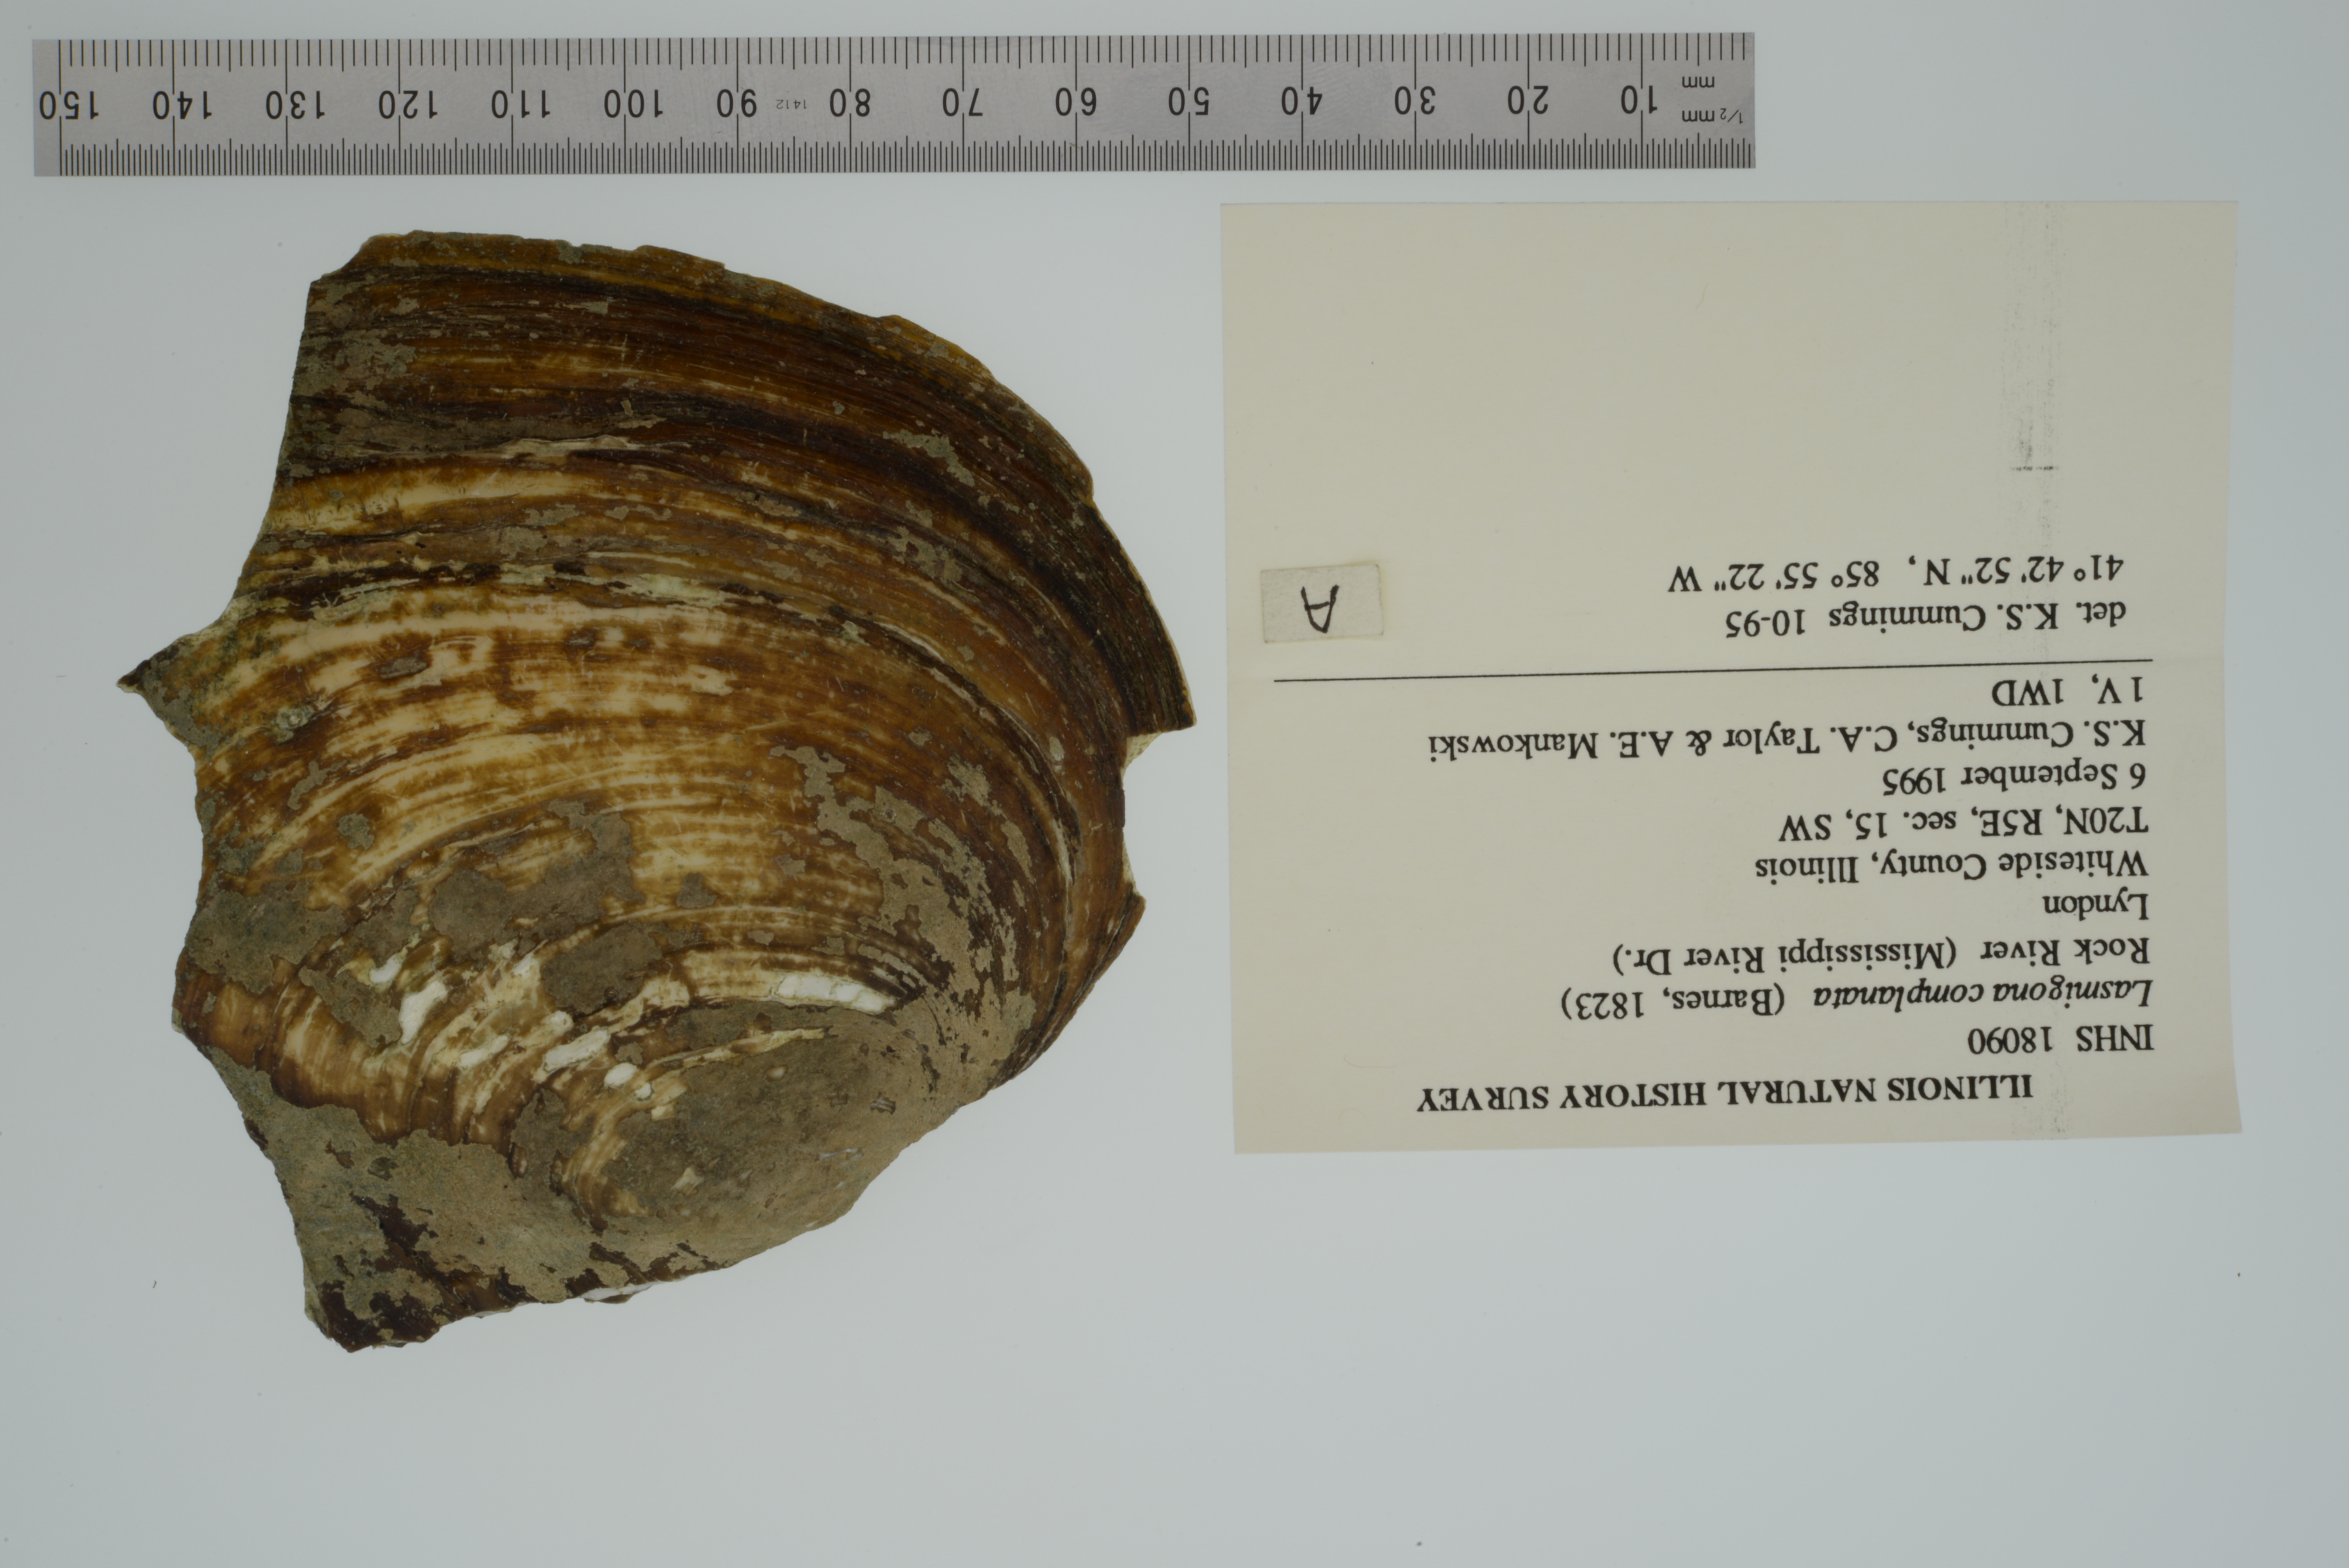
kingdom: Animalia
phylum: Mollusca
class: Bivalvia
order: Unionida
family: Unionidae
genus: Lasmigona
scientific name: Lasmigona complanata
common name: White heelsplitter
